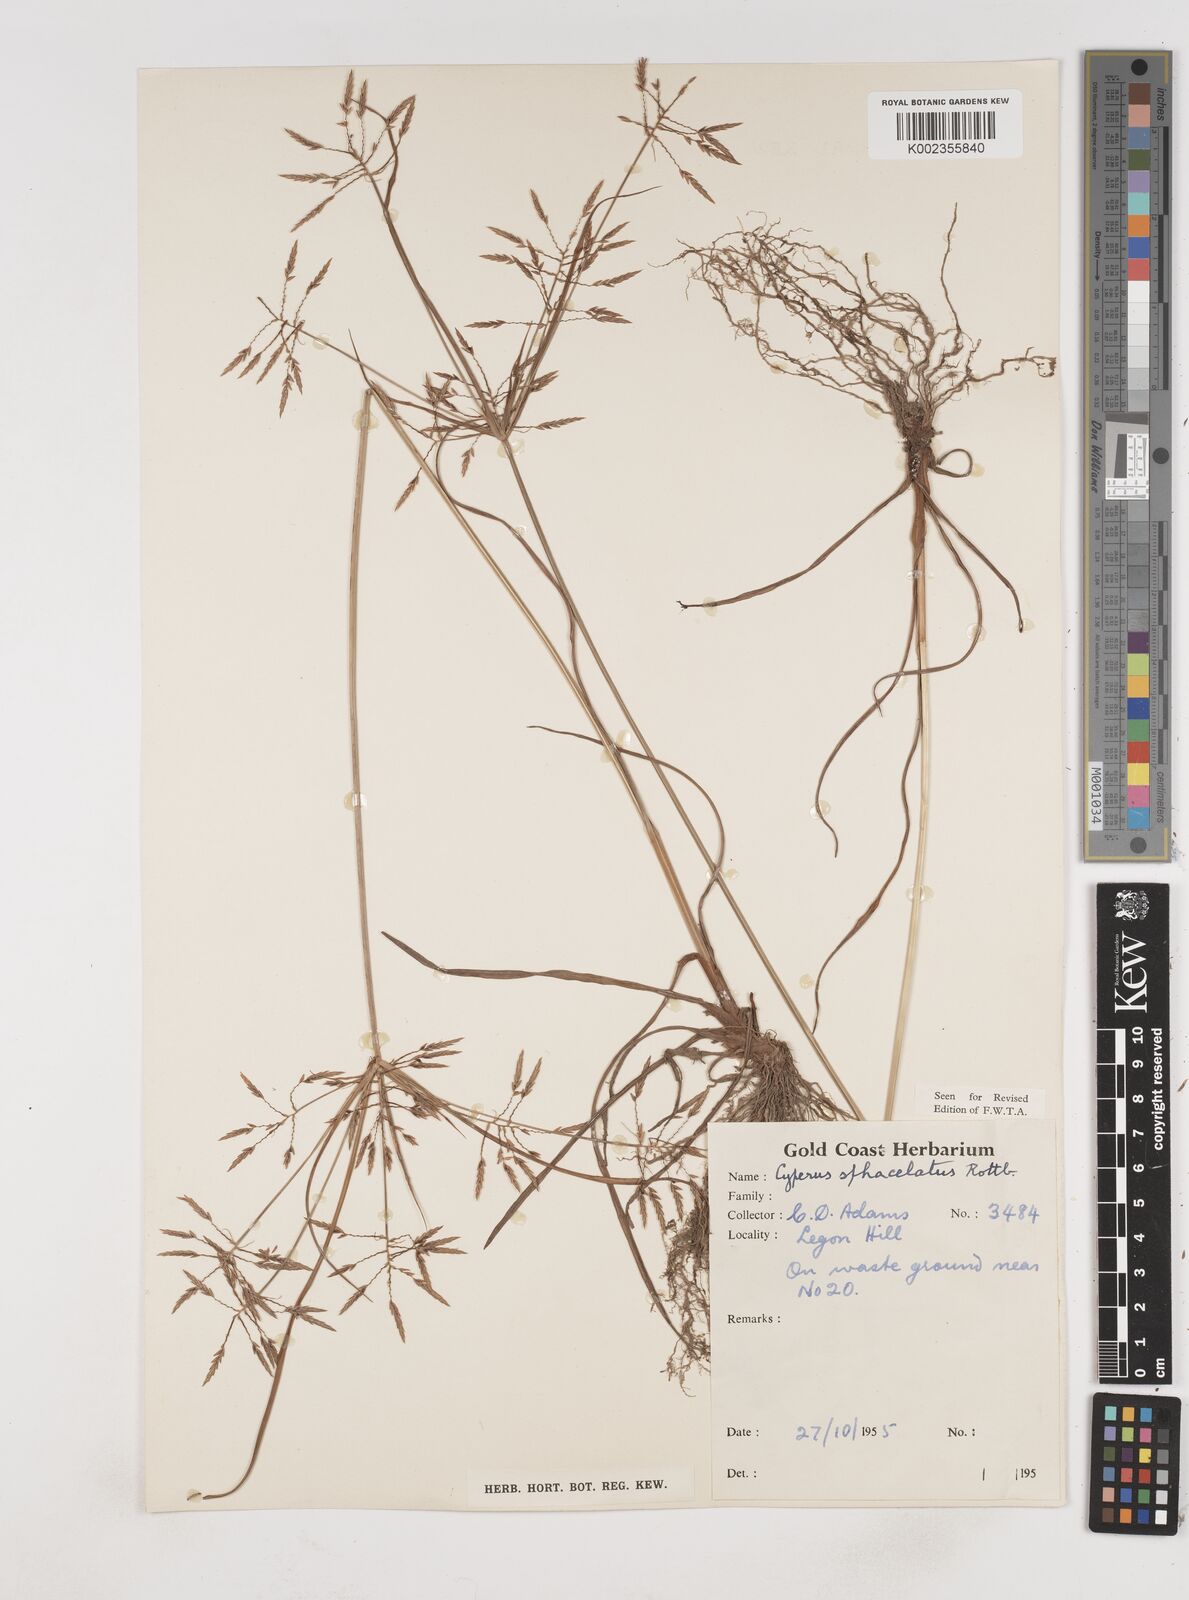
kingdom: Plantae
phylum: Tracheophyta
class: Liliopsida
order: Poales
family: Cyperaceae
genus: Cyperus
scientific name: Cyperus sphacelatus
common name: Roadside flatsedge
